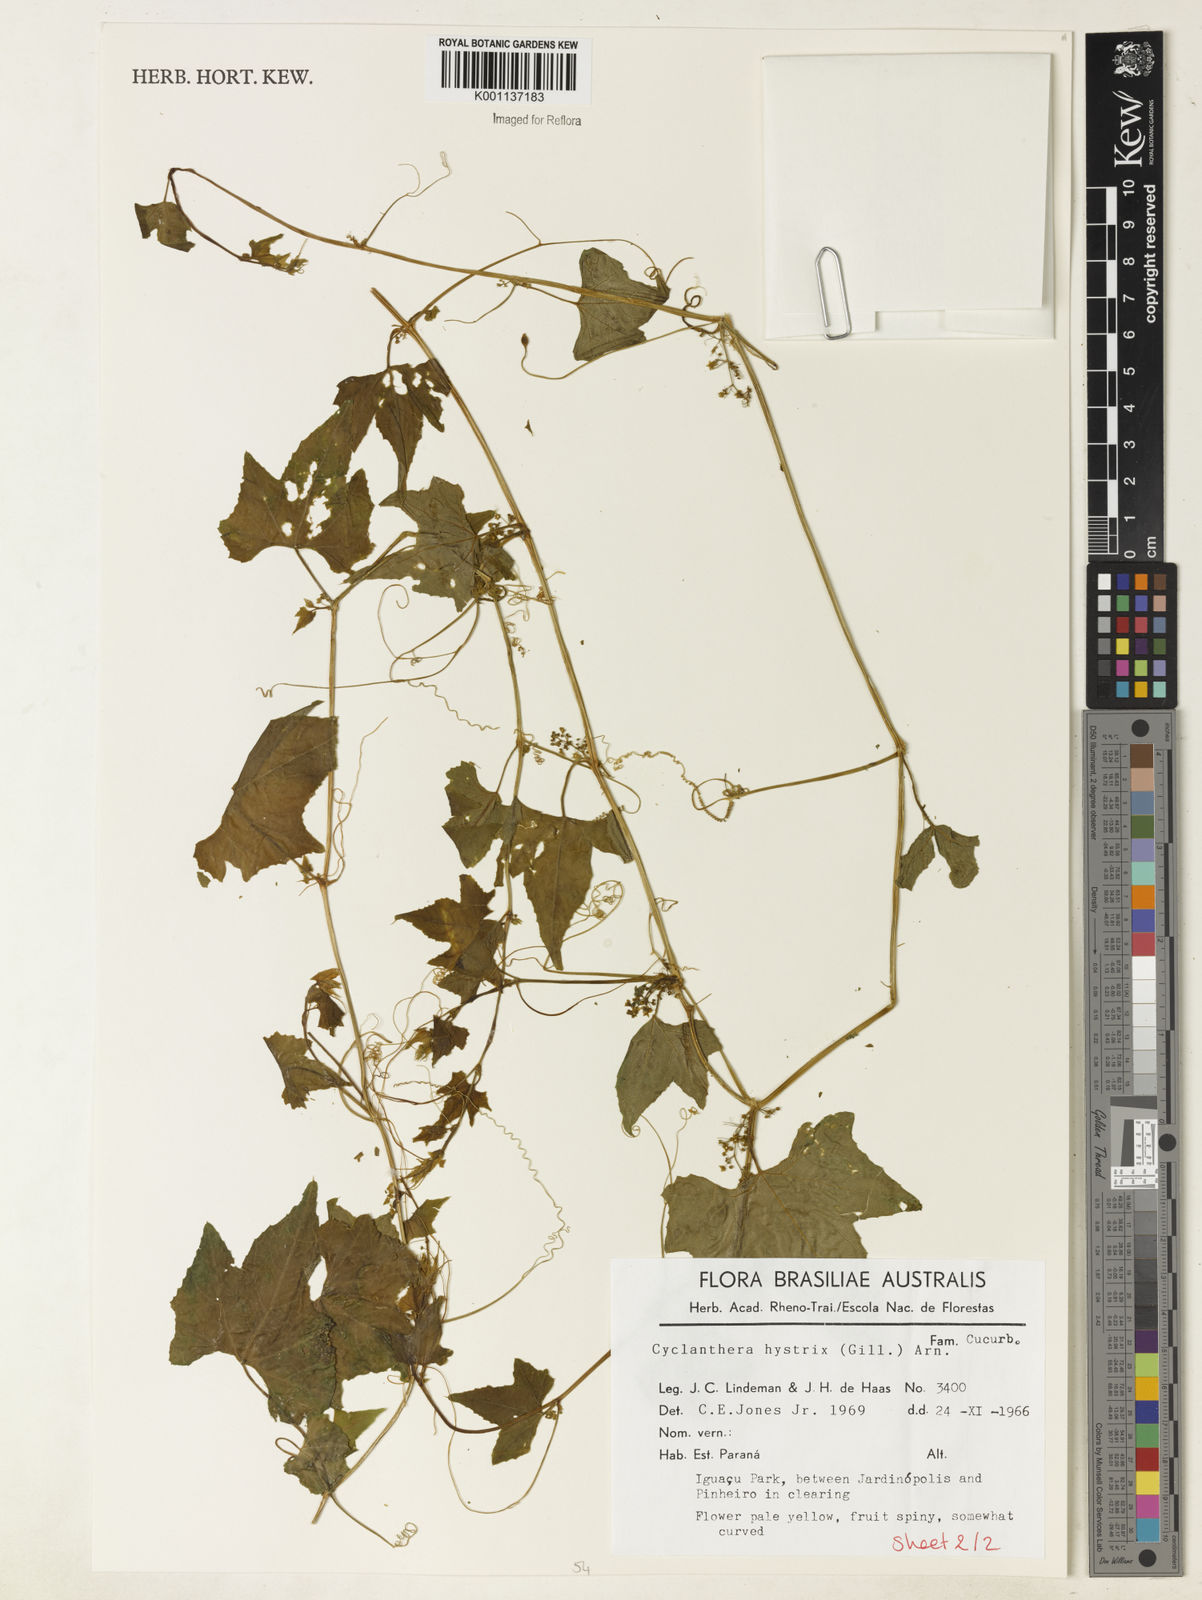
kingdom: Plantae
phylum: Tracheophyta
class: Magnoliopsida
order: Cucurbitales
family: Cucurbitaceae
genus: Cyclanthera
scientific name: Cyclanthera hystrix
